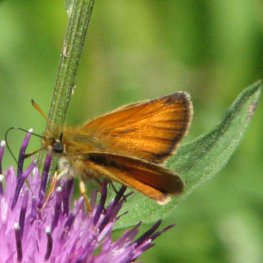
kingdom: Animalia
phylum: Arthropoda
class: Insecta
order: Lepidoptera
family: Hesperiidae
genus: Thymelicus
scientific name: Thymelicus lineola
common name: European Skipper
